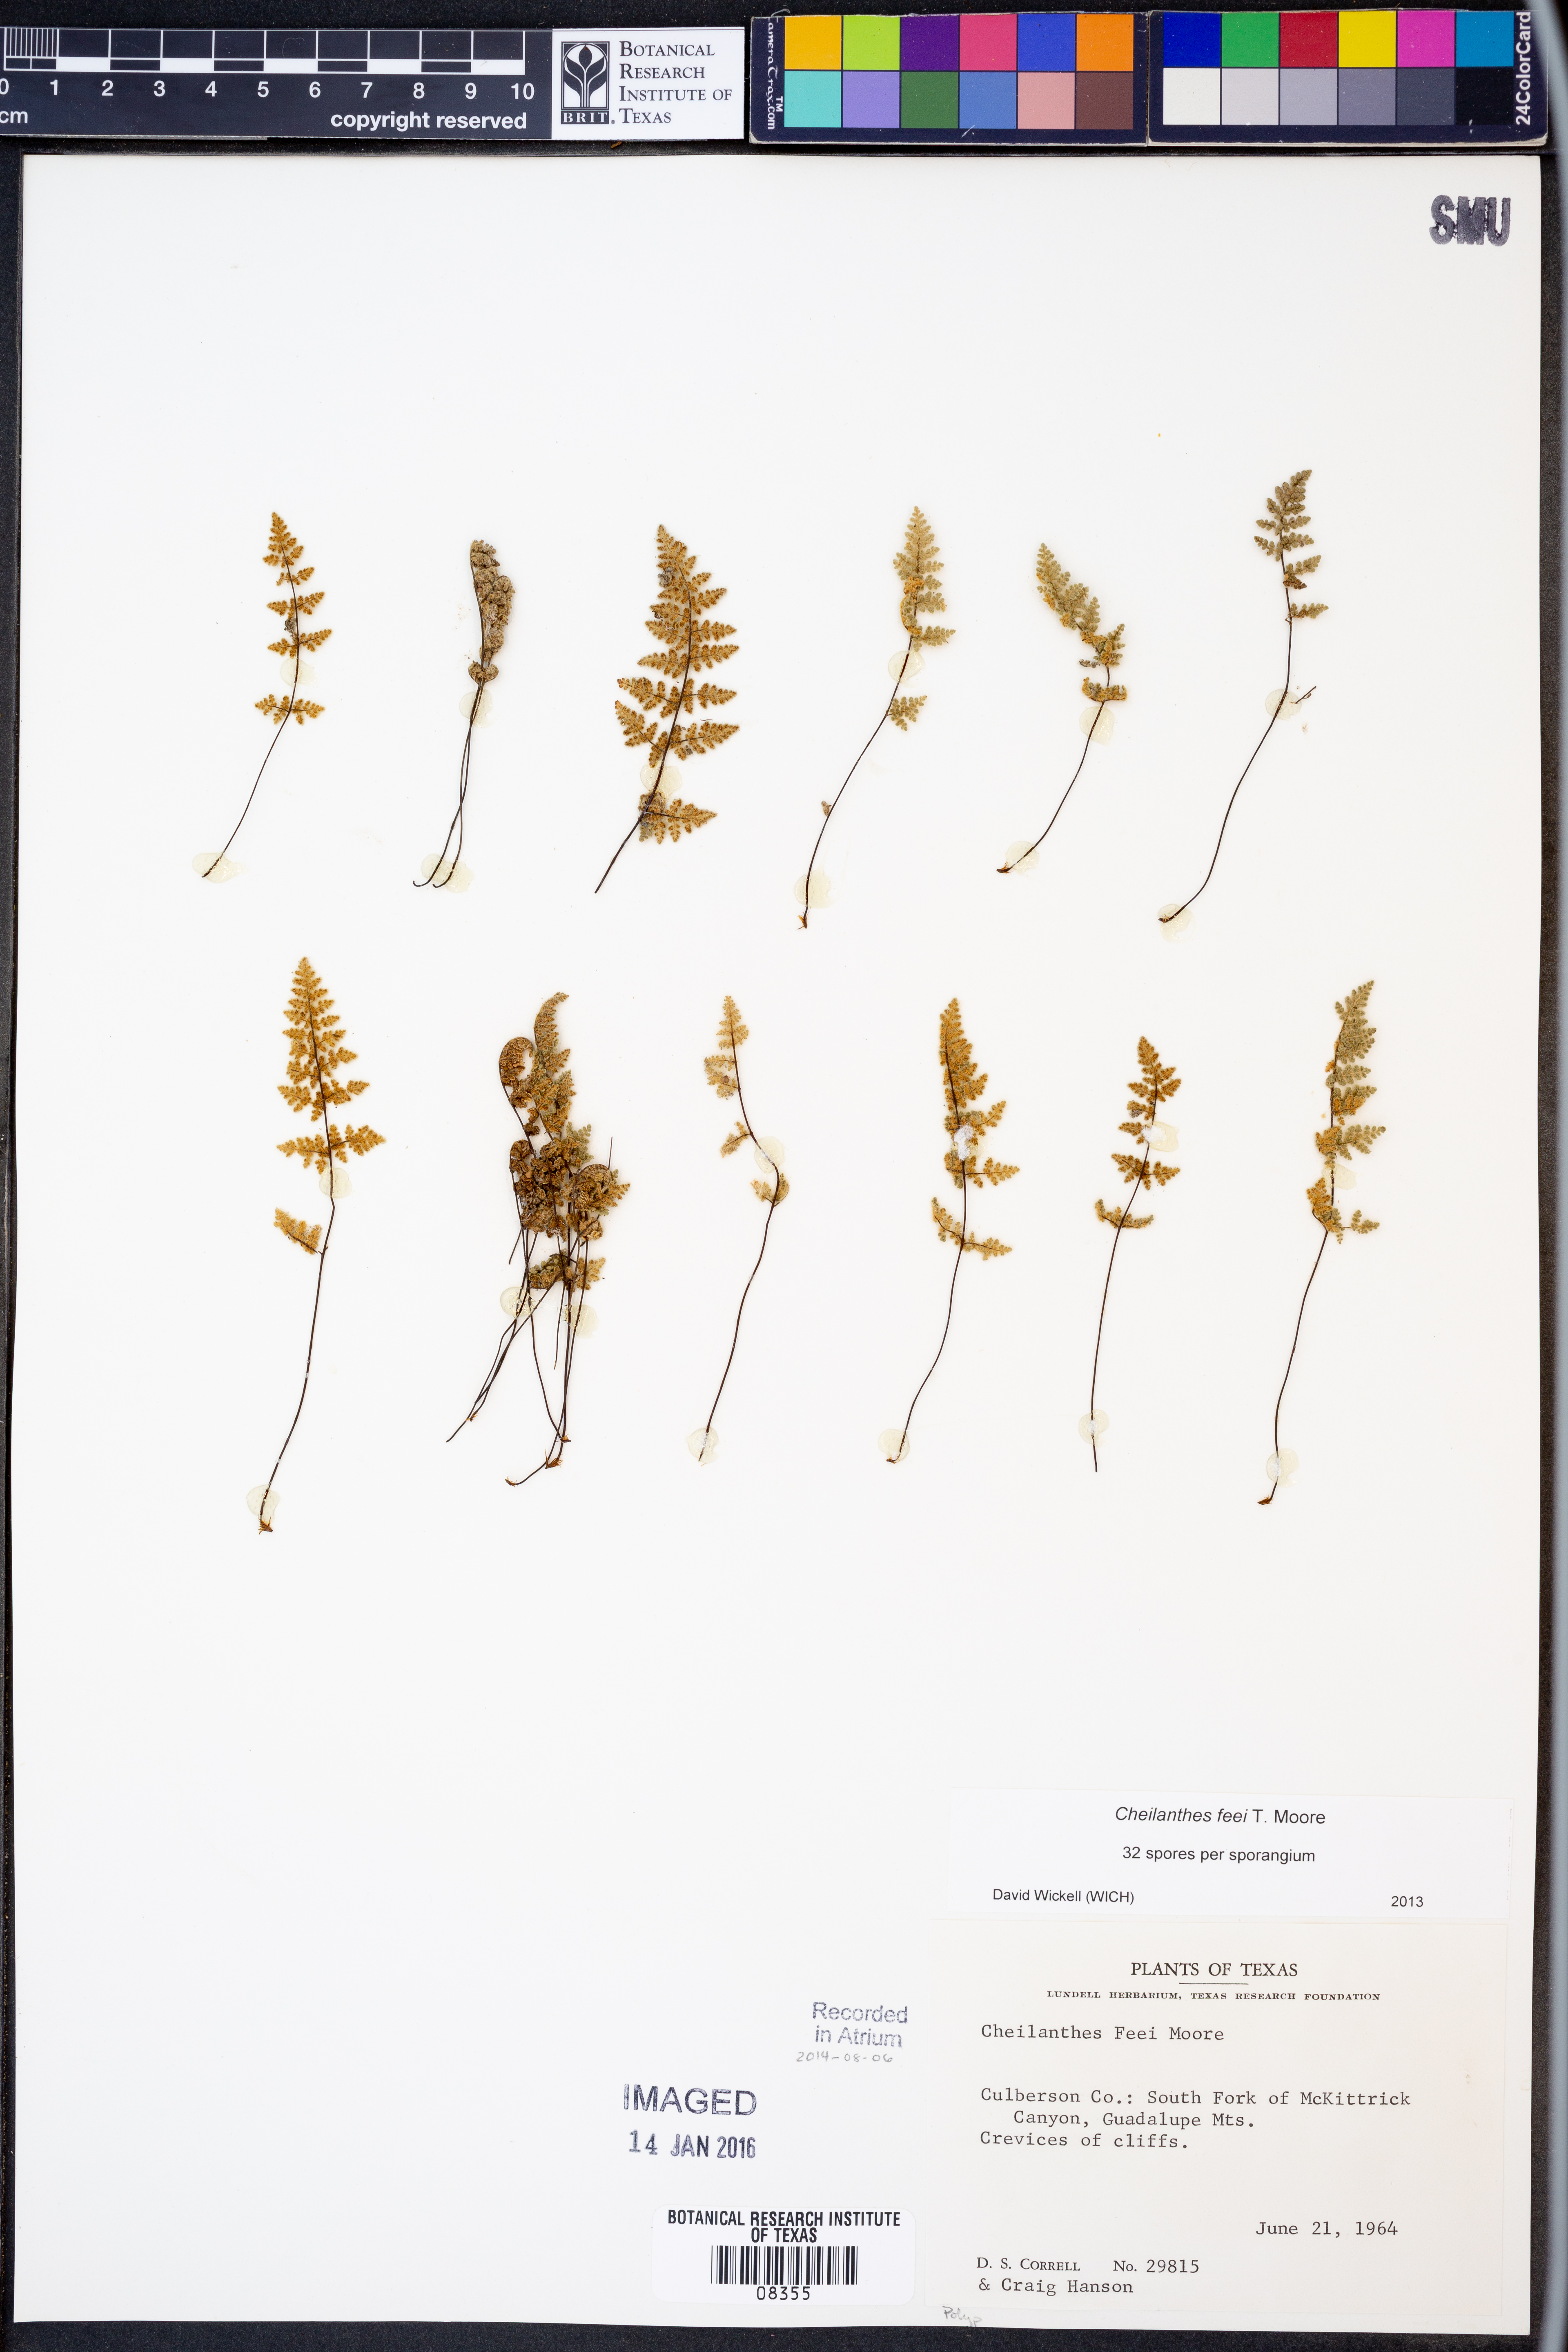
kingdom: Plantae
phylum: Tracheophyta
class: Polypodiopsida
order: Polypodiales
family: Pteridaceae
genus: Myriopteris
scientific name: Myriopteris gracilis
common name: Fee's lip fern
